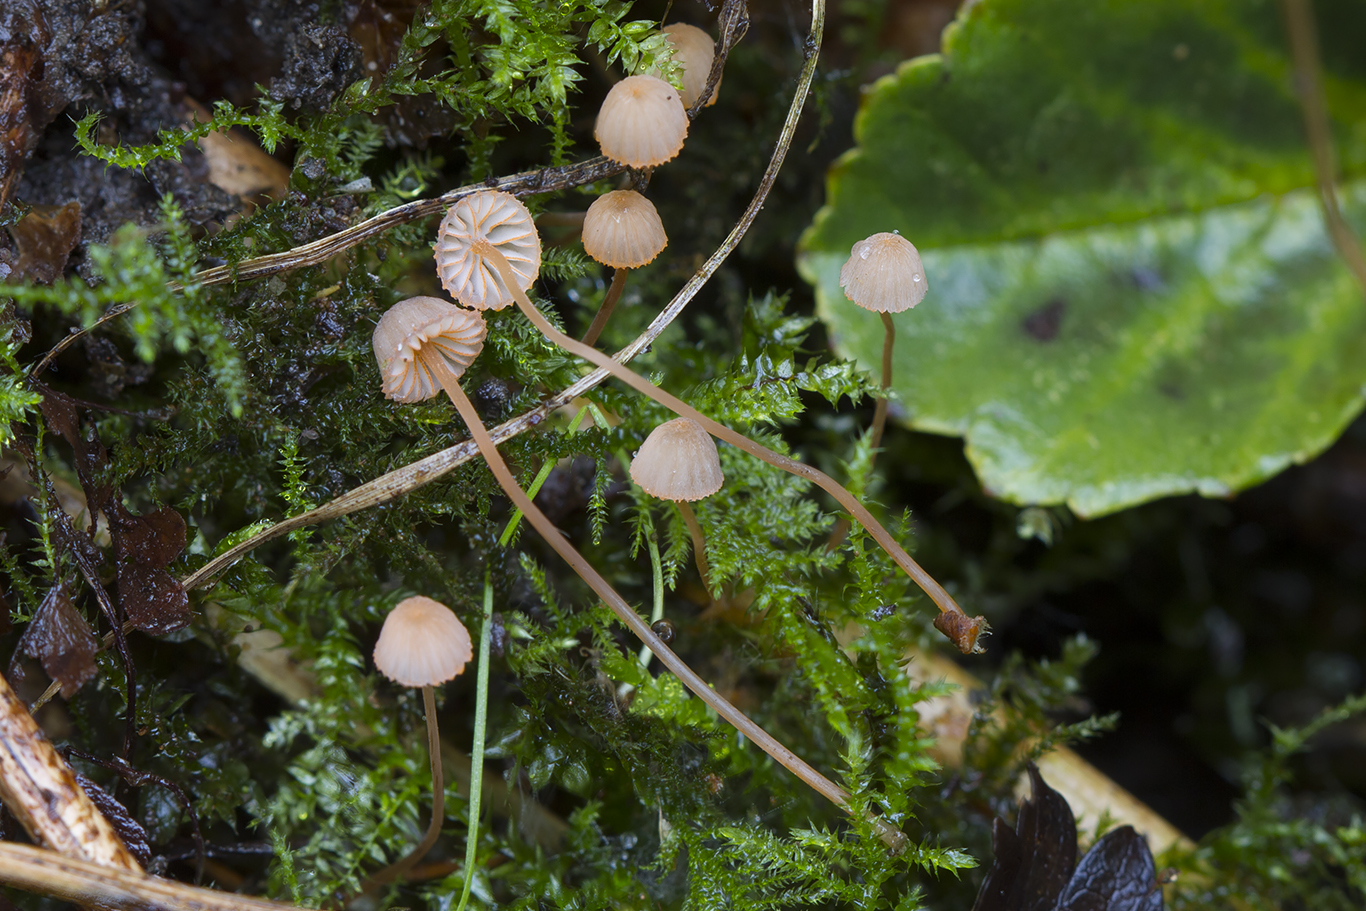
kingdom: Fungi
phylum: Basidiomycota
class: Agaricomycetes
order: Agaricales
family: Mycenaceae
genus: Mycena
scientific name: Mycena pterigena
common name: bregne-huesvamp
